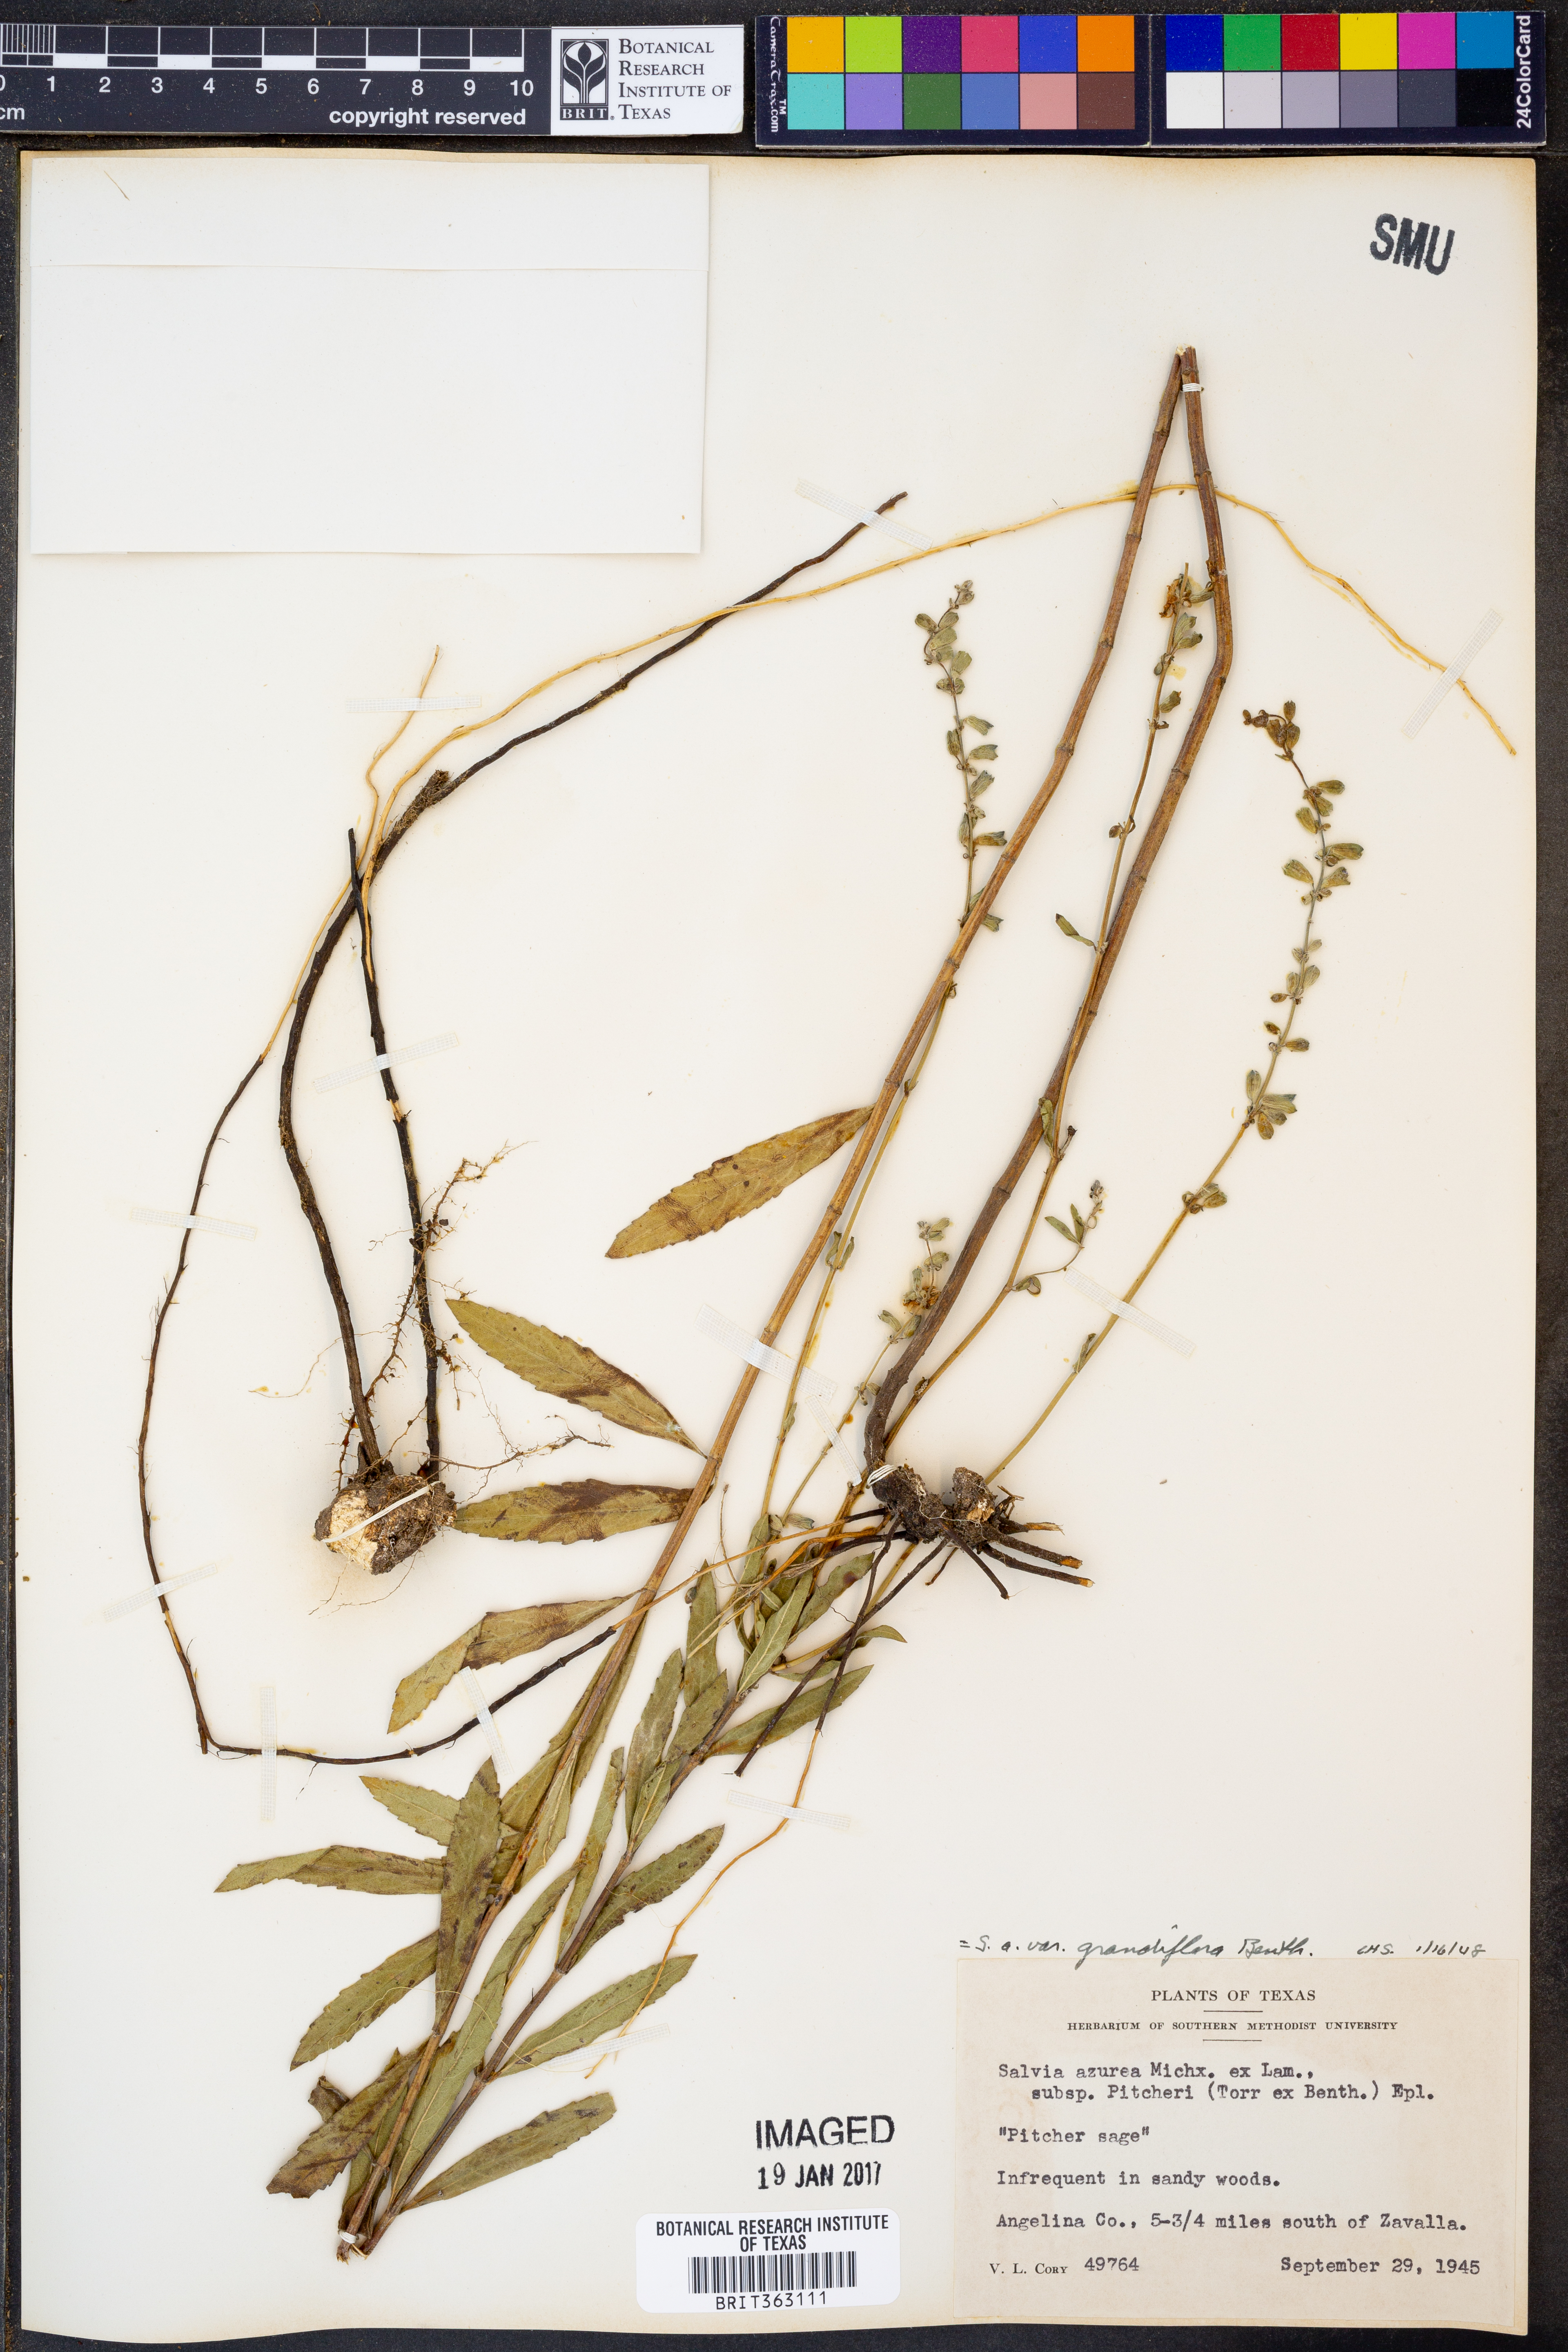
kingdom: Plantae
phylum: Tracheophyta
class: Magnoliopsida
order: Lamiales
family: Lamiaceae
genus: Salvia
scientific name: Salvia azurea
